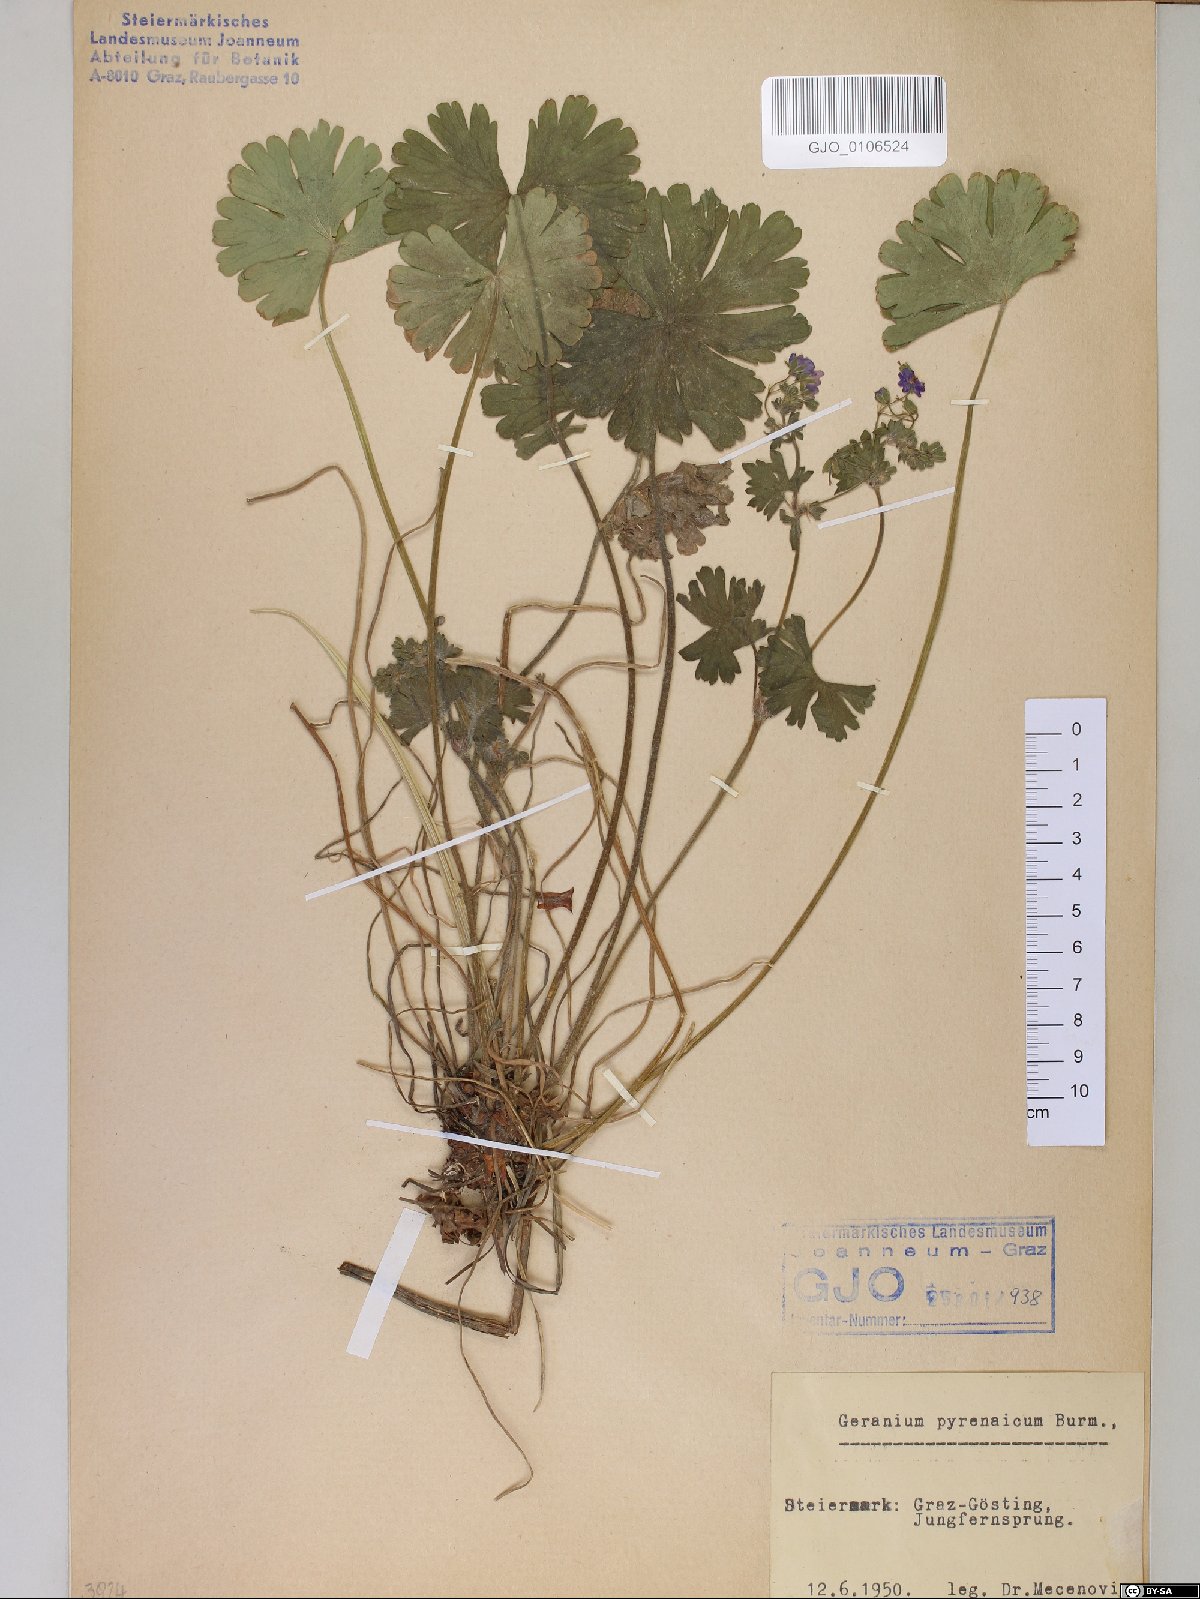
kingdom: Plantae
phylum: Tracheophyta
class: Magnoliopsida
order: Geraniales
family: Geraniaceae
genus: Geranium
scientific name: Geranium pyrenaicum
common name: Hedgerow crane's-bill
